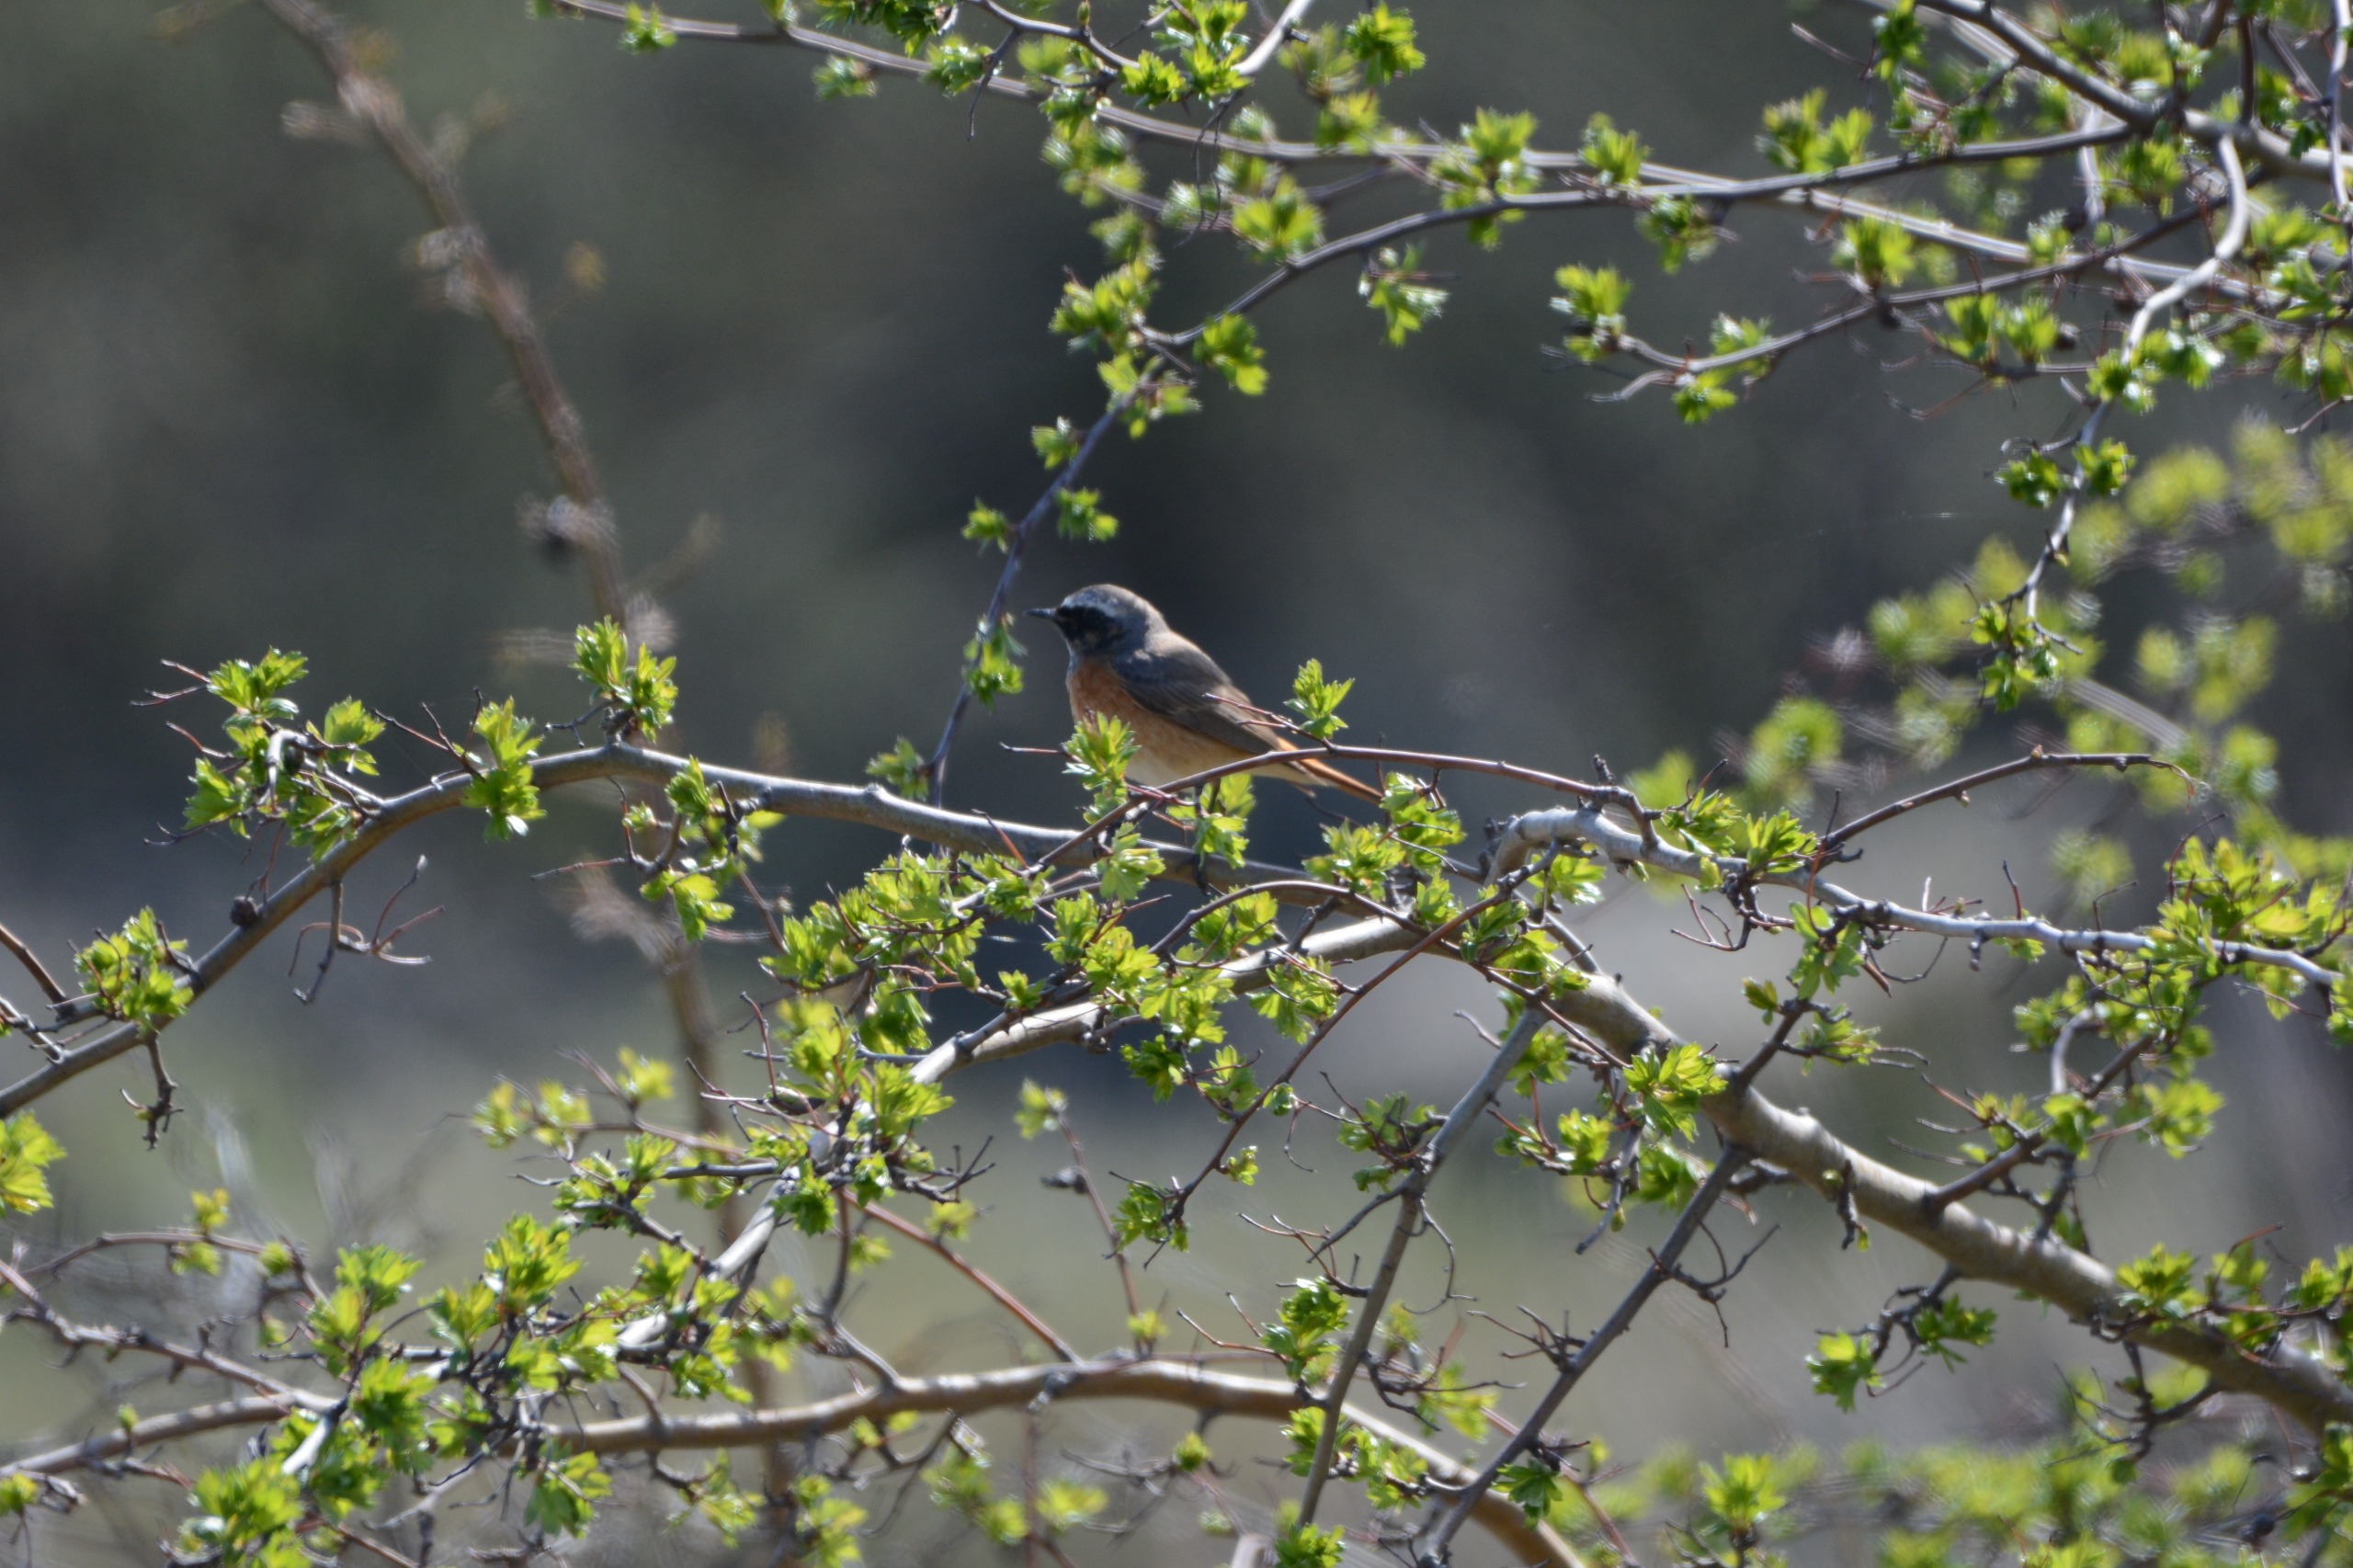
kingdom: Animalia
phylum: Chordata
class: Aves
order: Passeriformes
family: Muscicapidae
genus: Phoenicurus
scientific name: Phoenicurus phoenicurus
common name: Rødstjert
